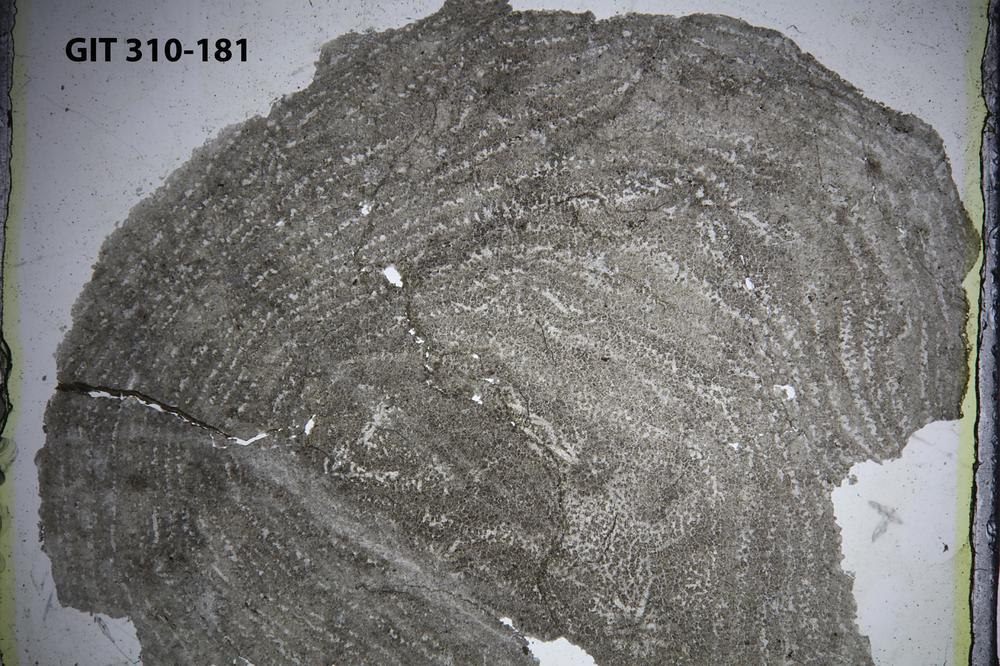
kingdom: Animalia
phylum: Porifera
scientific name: Porifera
